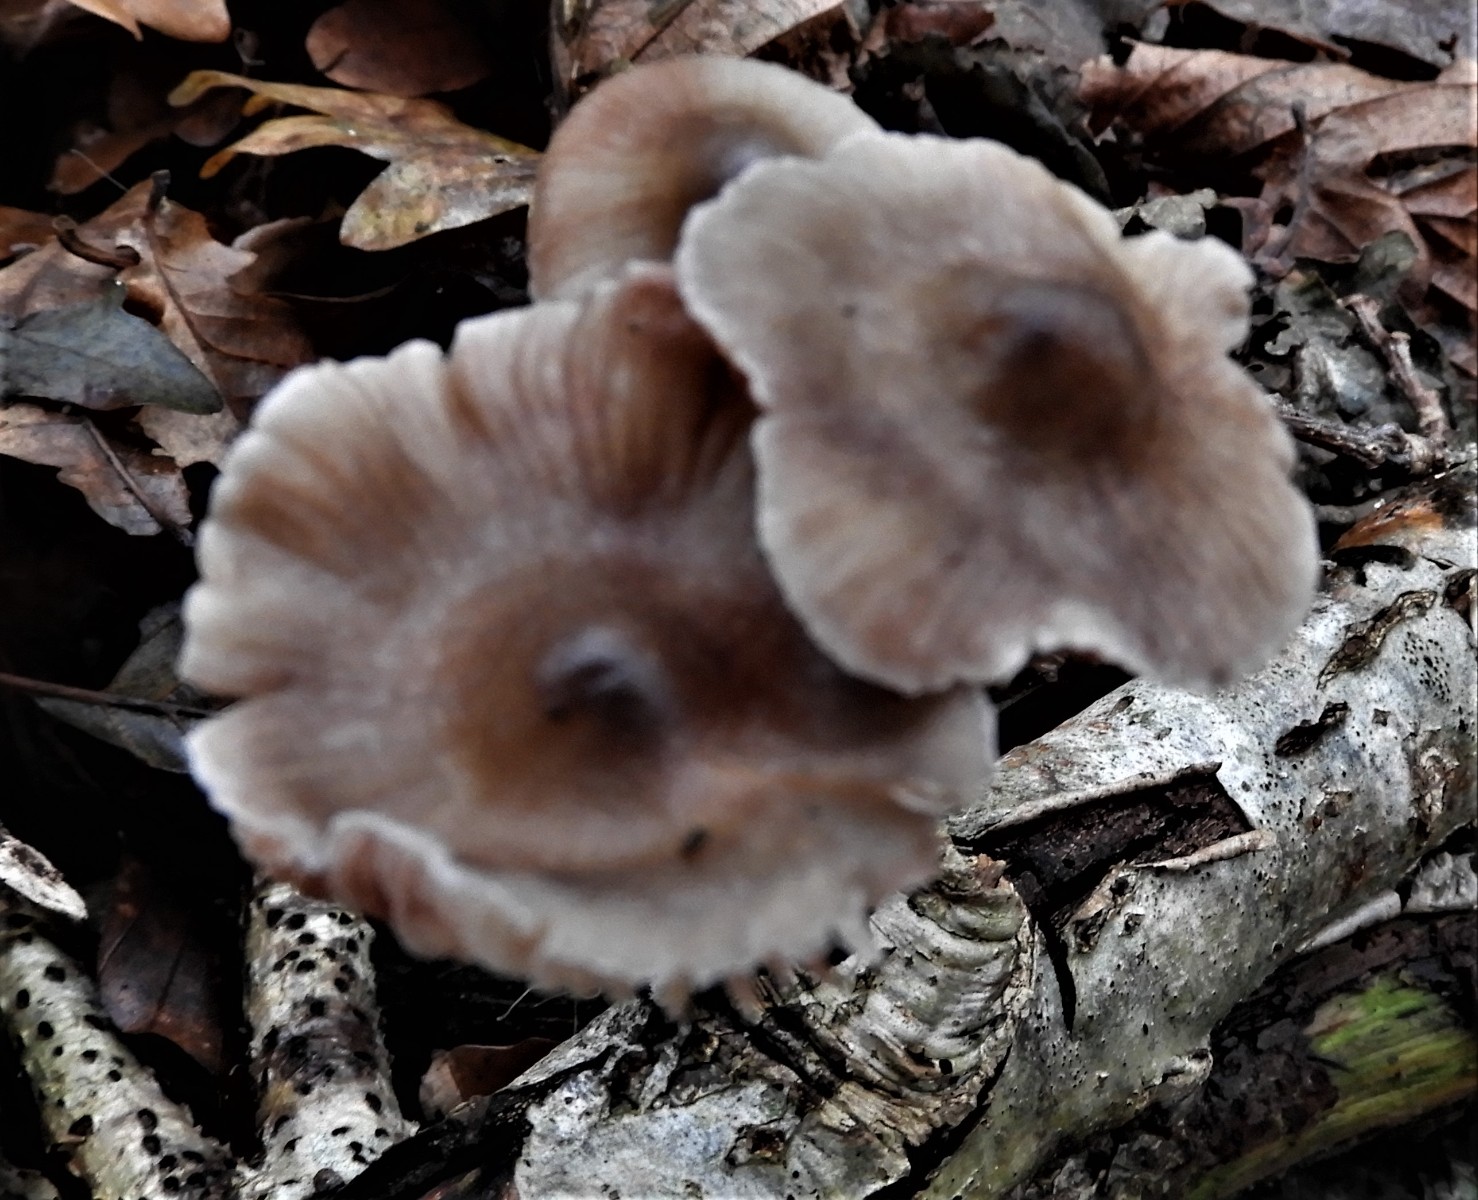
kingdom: Fungi
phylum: Basidiomycota
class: Agaricomycetes
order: Agaricales
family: Mycenaceae
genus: Mycena
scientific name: Mycena polygramma
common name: mangestribet huesvamp
